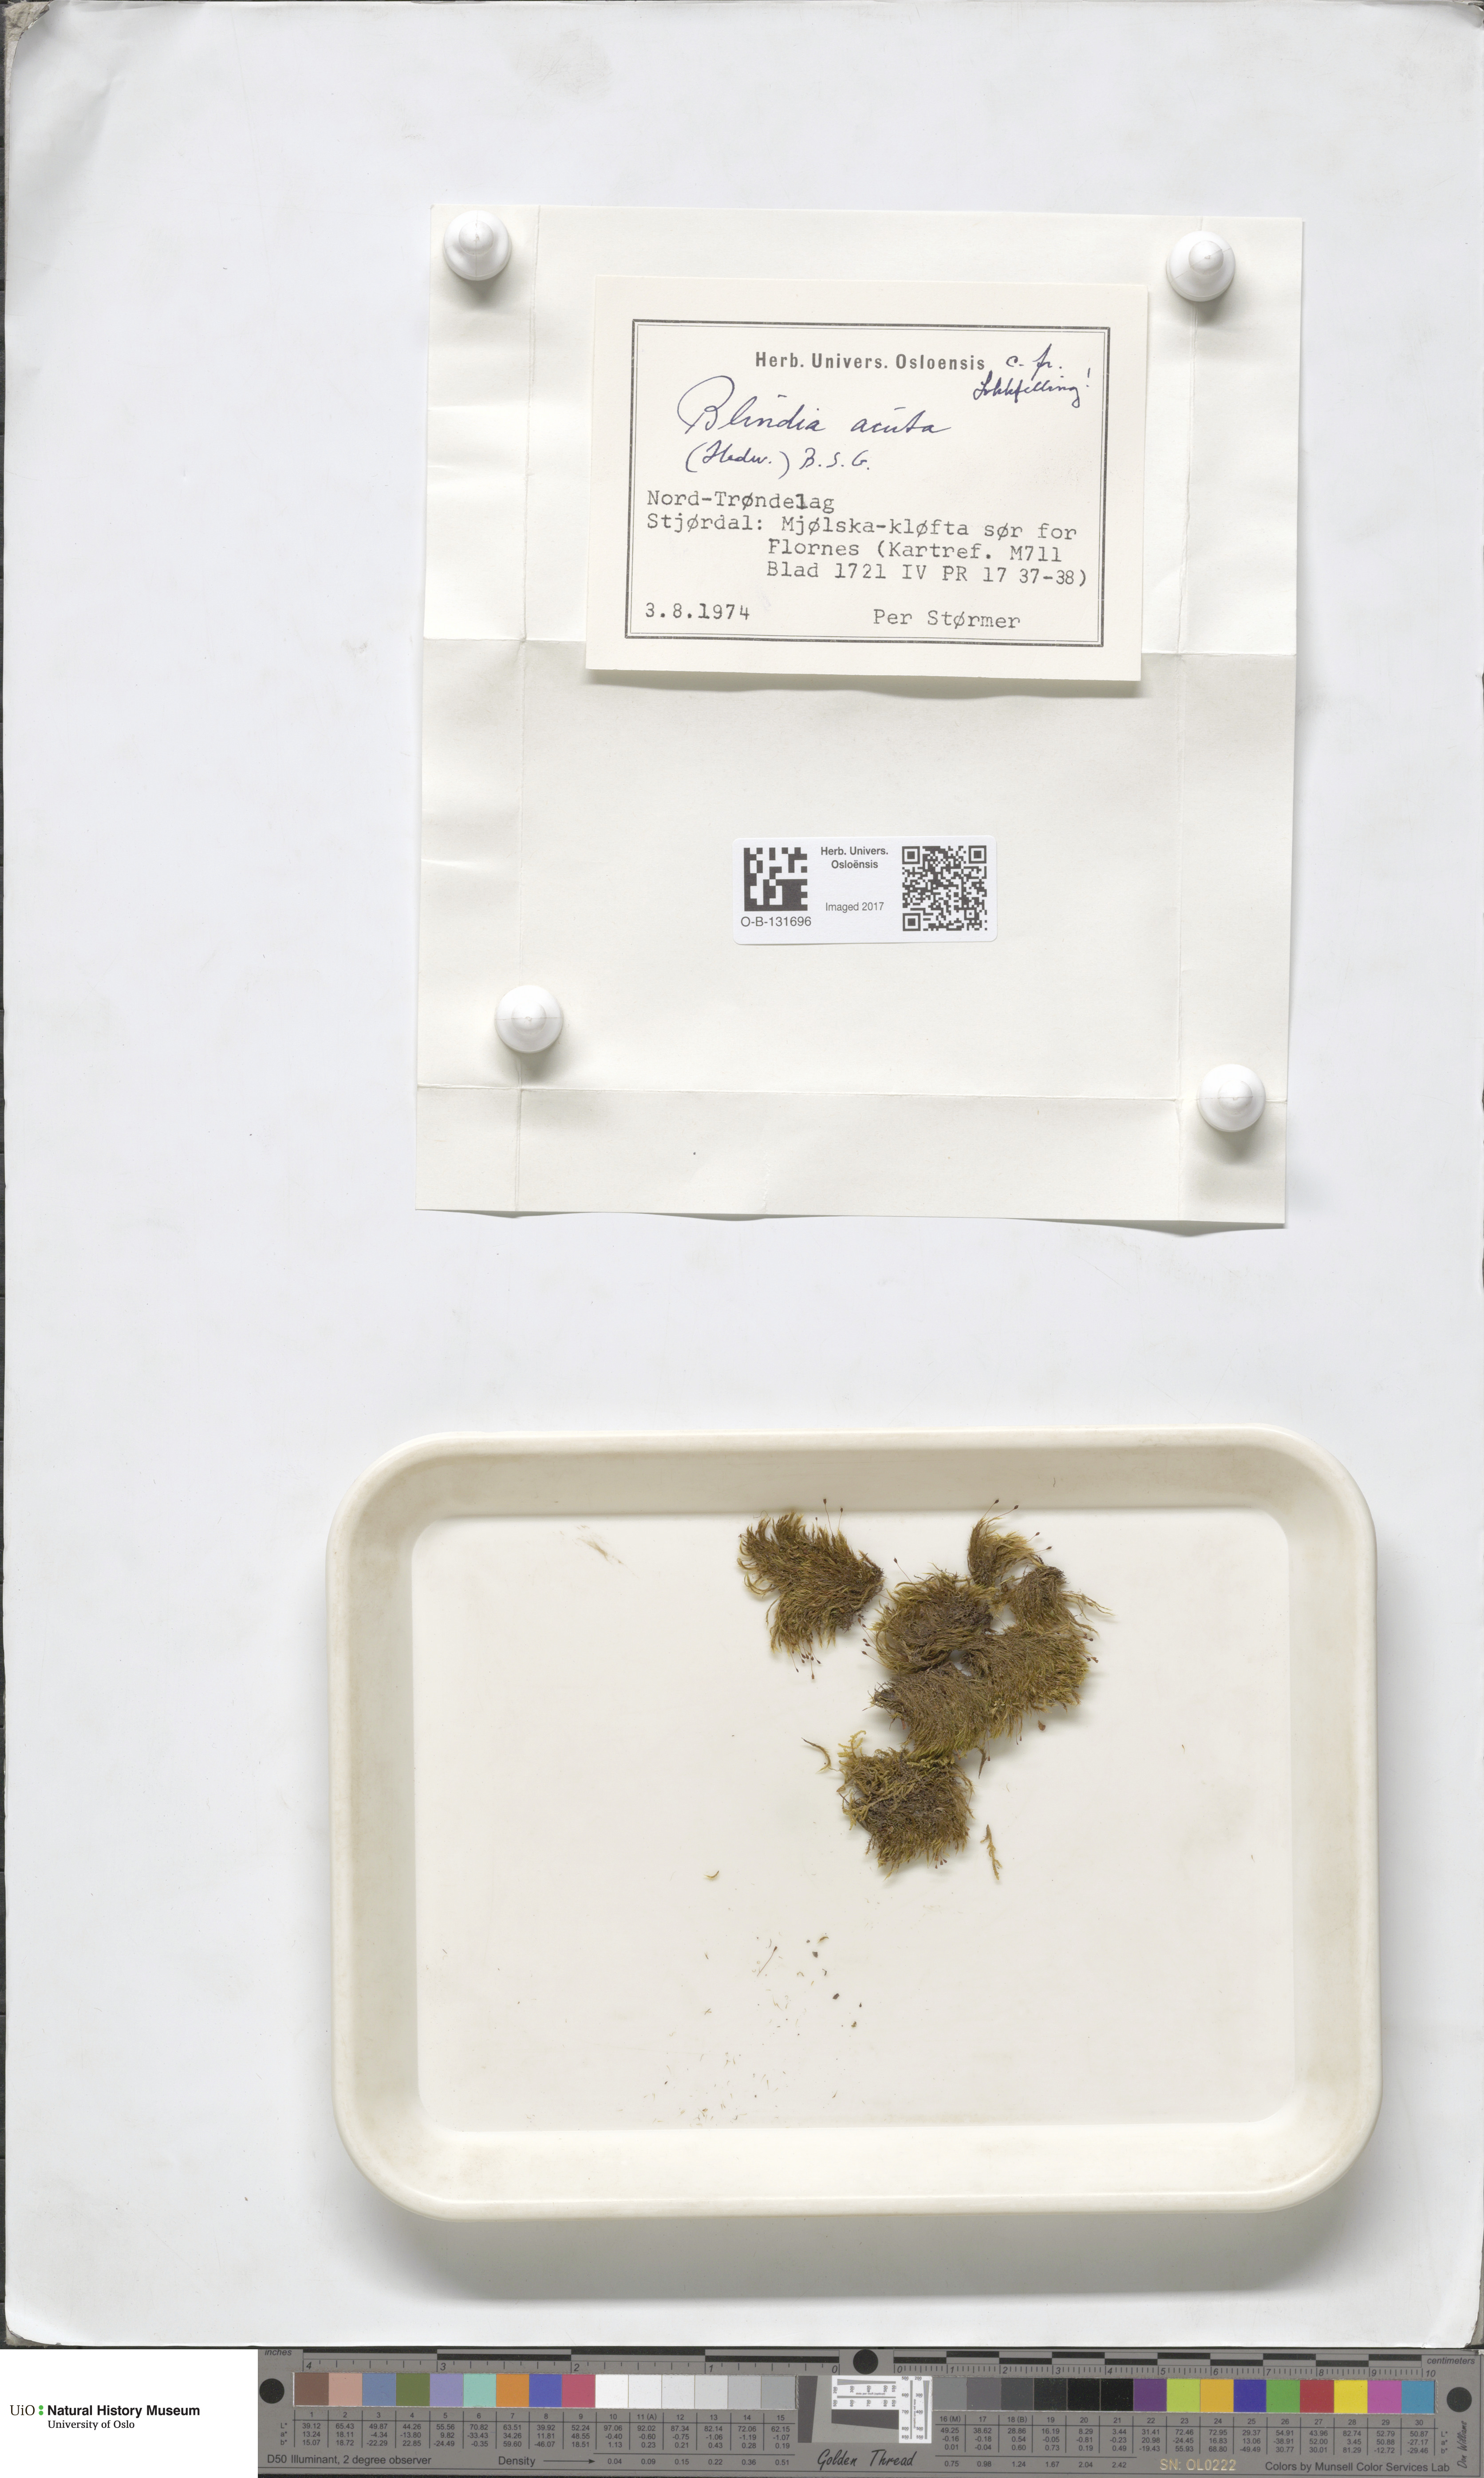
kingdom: Plantae
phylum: Bryophyta
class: Bryopsida
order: Grimmiales
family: Seligeriaceae
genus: Blindia
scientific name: Blindia acuta
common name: Sharp-leaved blind's moss
